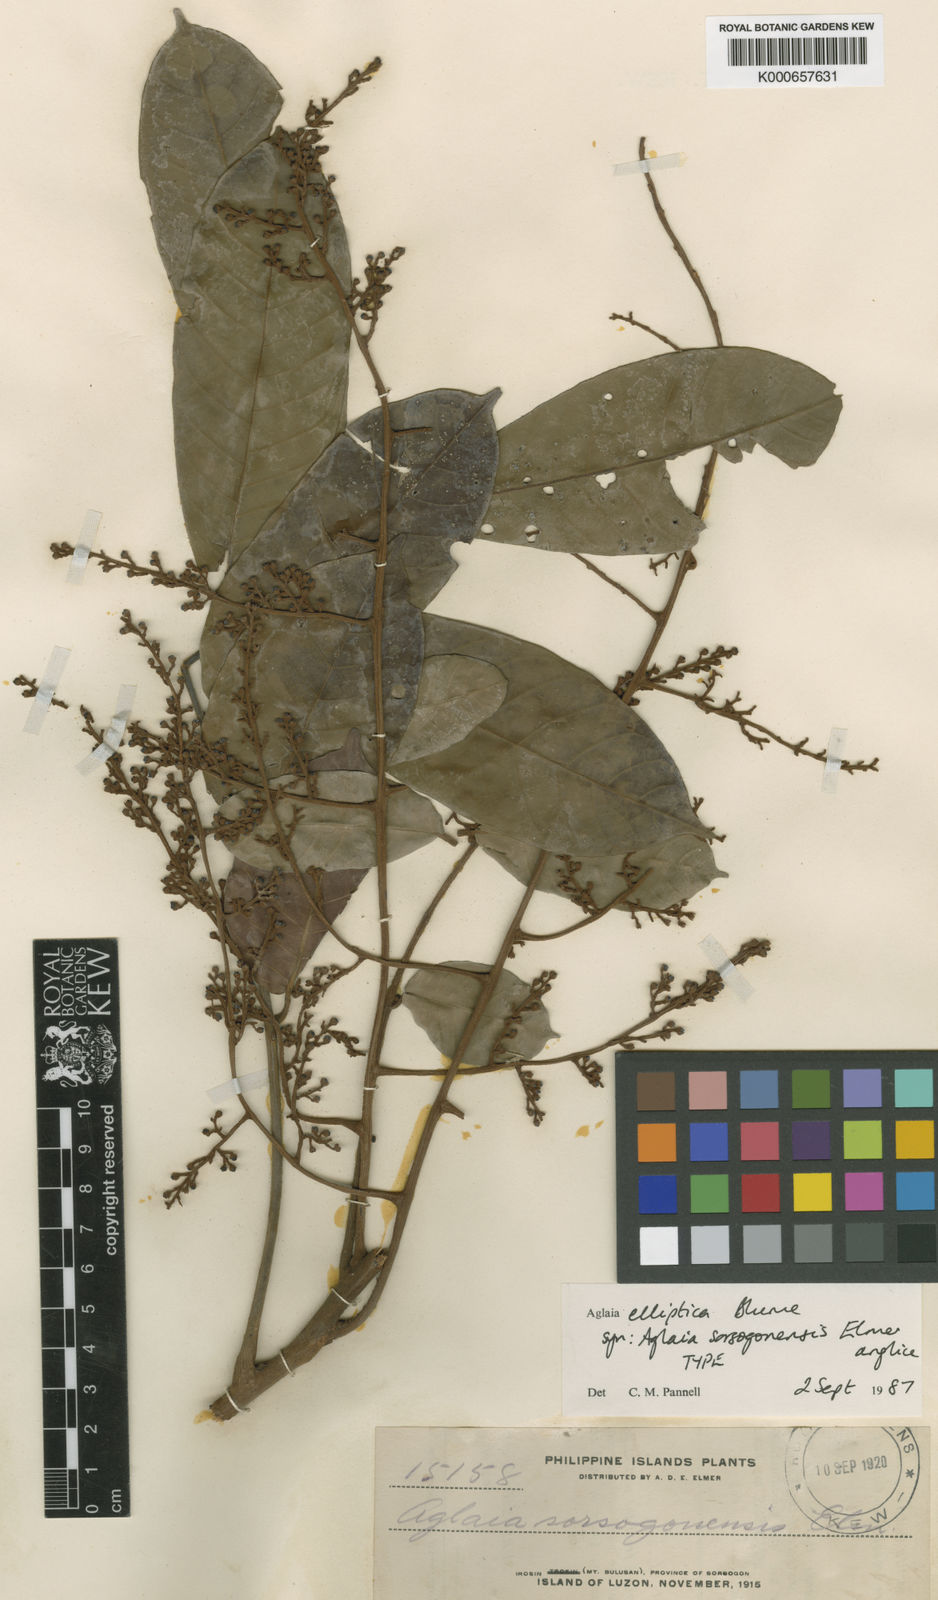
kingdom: Plantae
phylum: Tracheophyta
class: Magnoliopsida
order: Sapindales
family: Meliaceae
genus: Aglaia
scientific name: Aglaia elliptica
